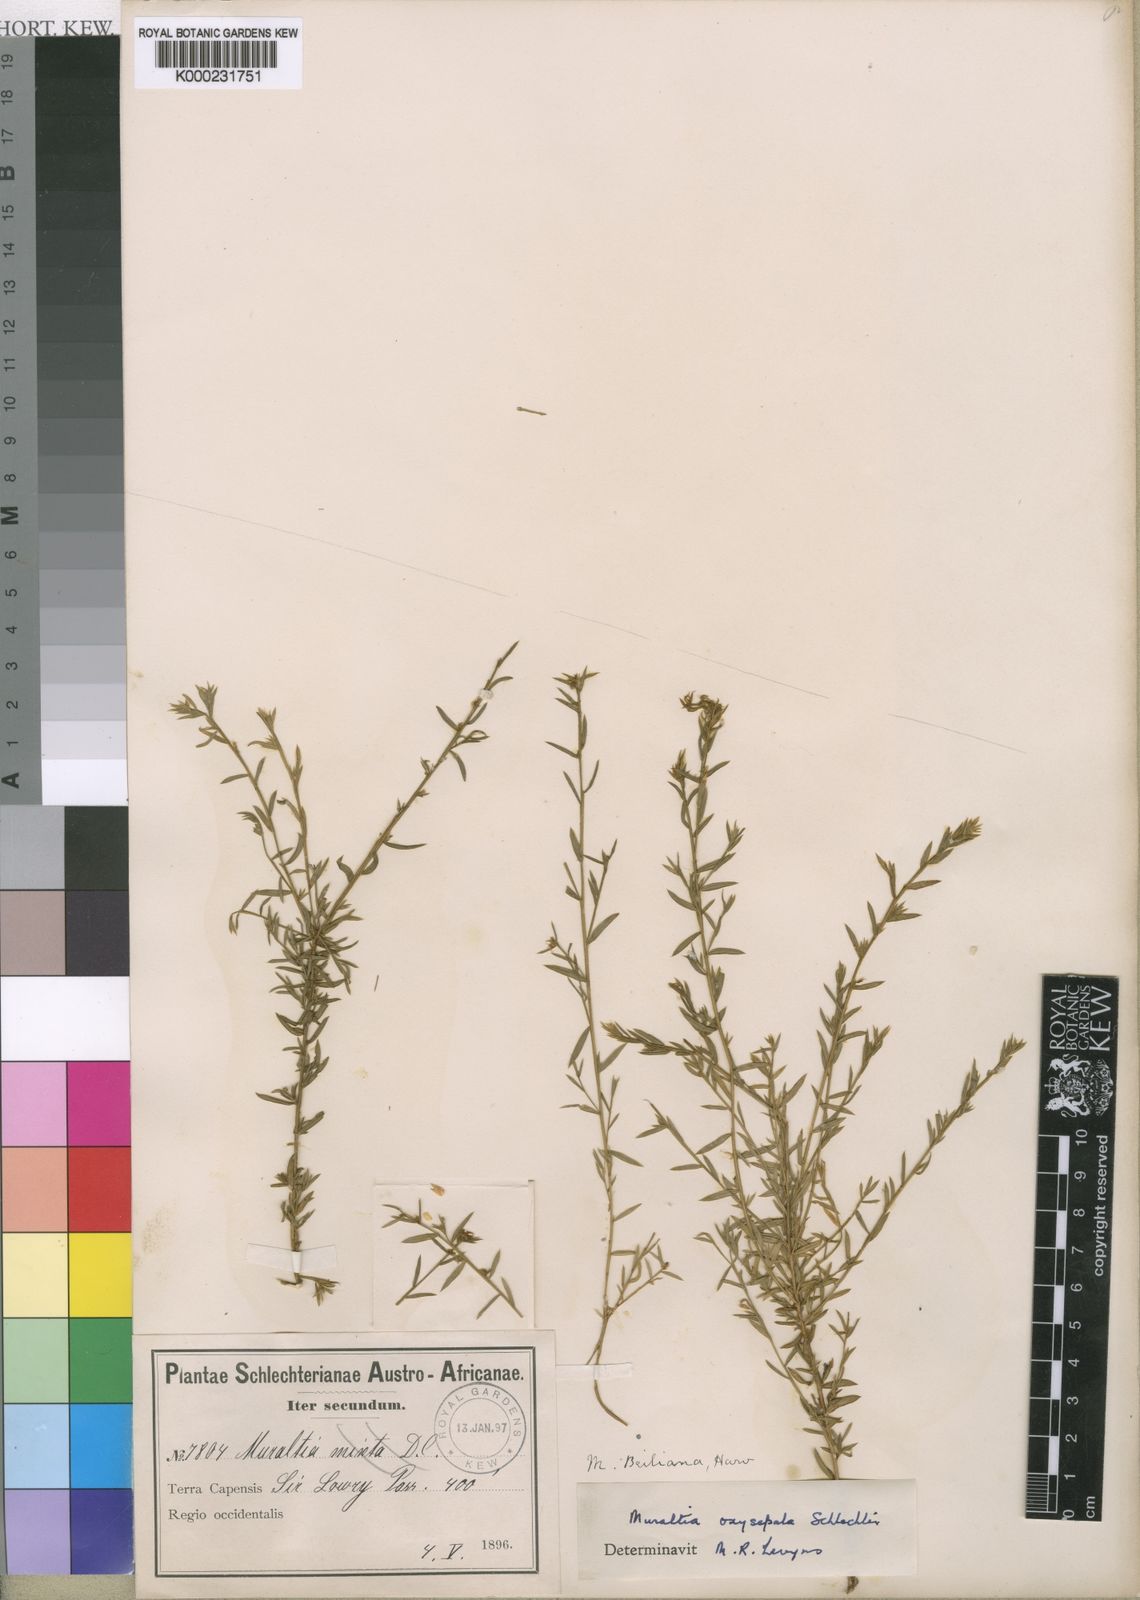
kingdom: Plantae
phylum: Tracheophyta
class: Magnoliopsida
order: Fabales
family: Polygalaceae
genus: Muraltia
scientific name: Muraltia oxysepala
